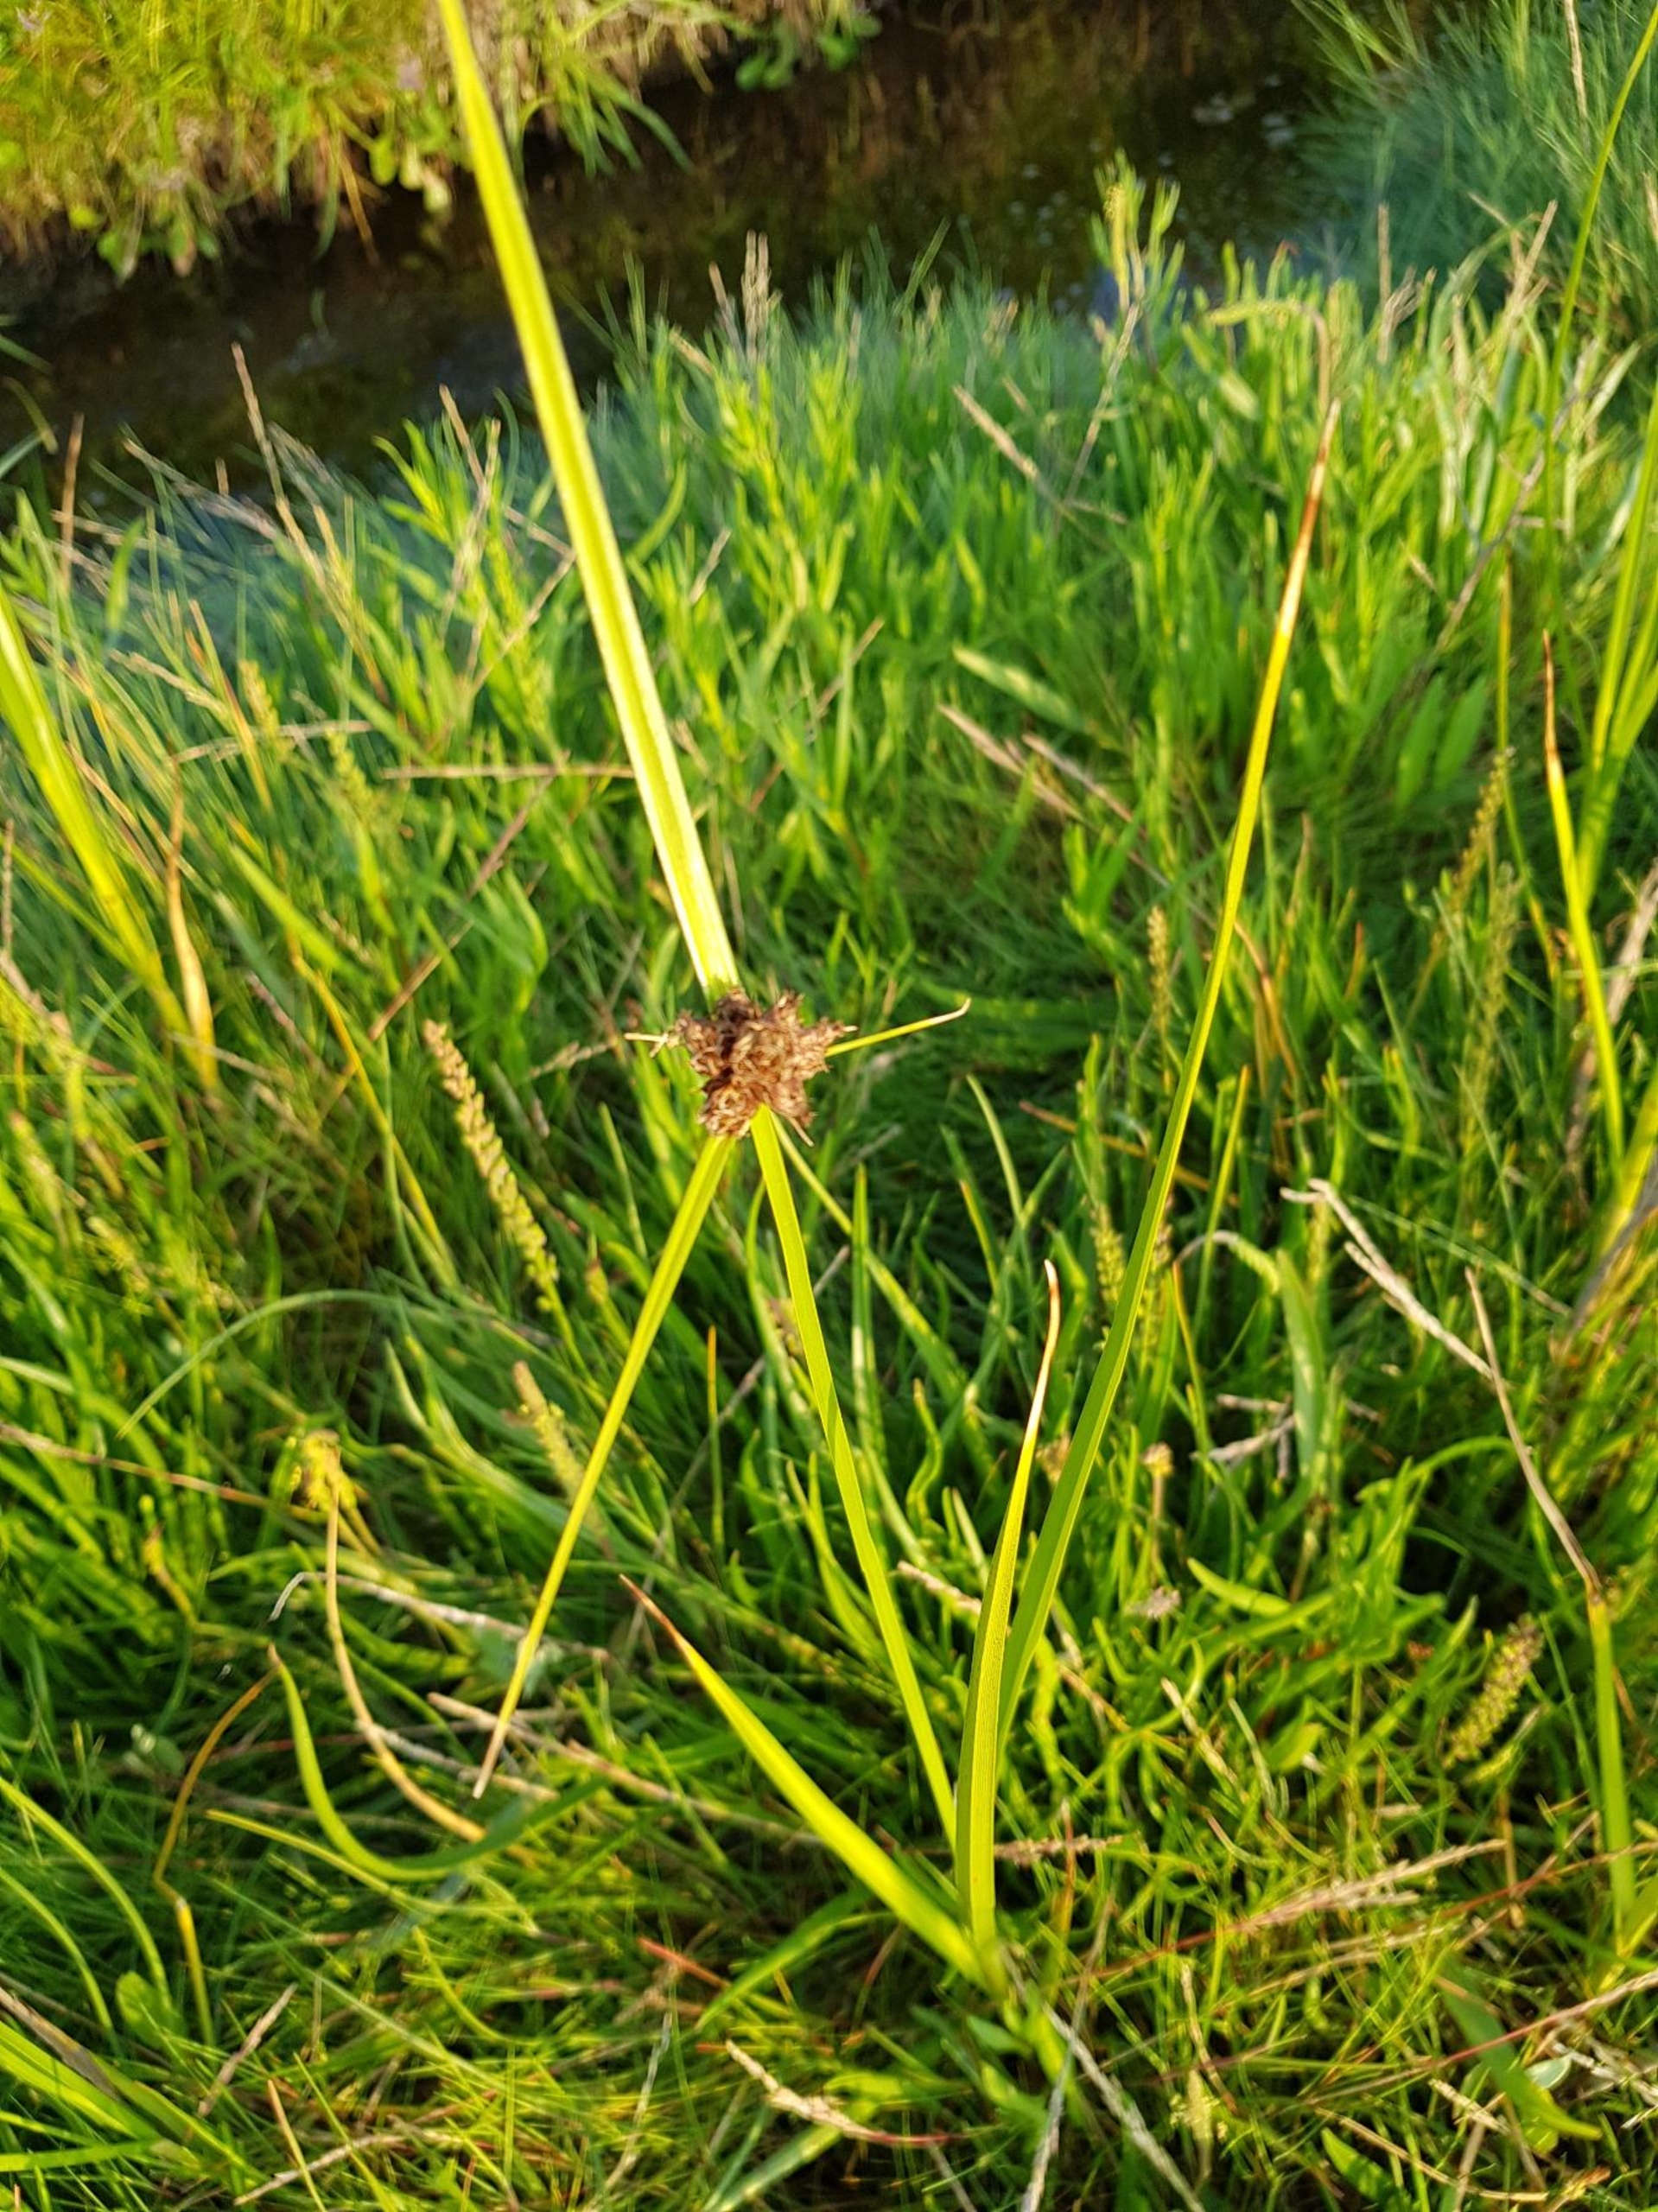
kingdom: Plantae
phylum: Tracheophyta
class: Liliopsida
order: Poales
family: Cyperaceae
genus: Bolboschoenus
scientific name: Bolboschoenus maritimus
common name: Strand-kogleaks
